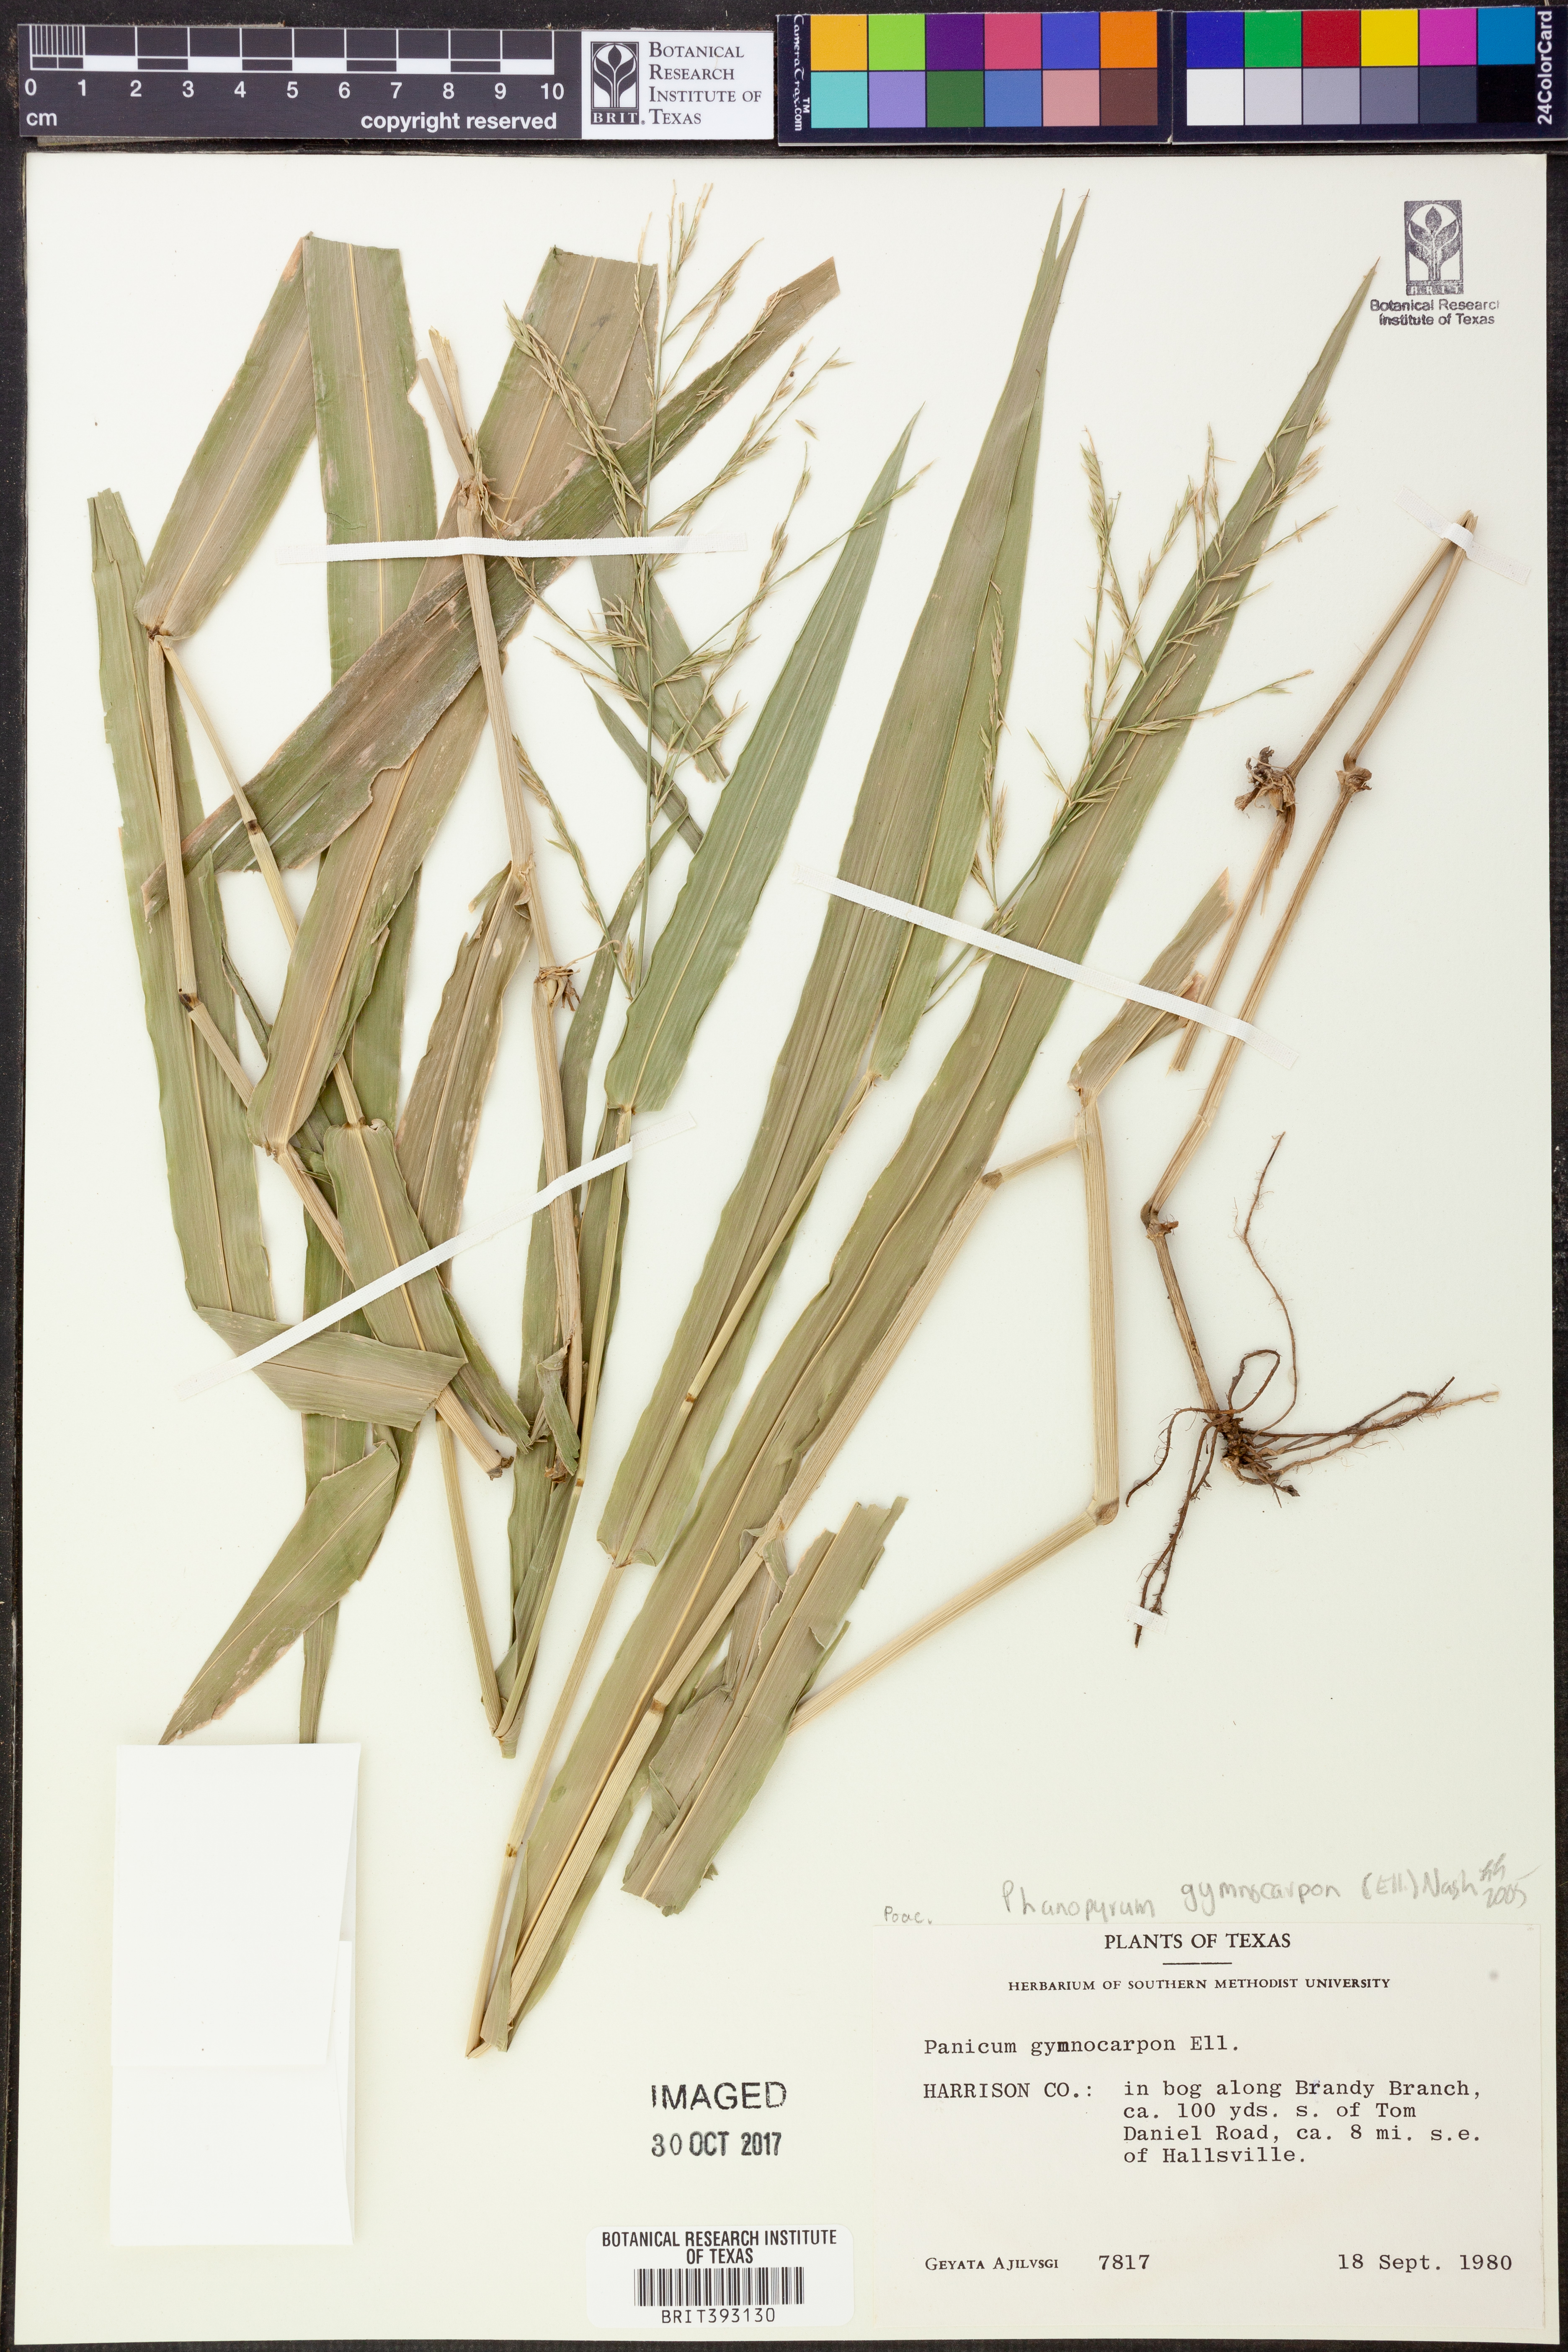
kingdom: Plantae
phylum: Tracheophyta
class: Liliopsida
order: Poales
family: Poaceae
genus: Panicum
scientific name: Panicum gymnocarpon
